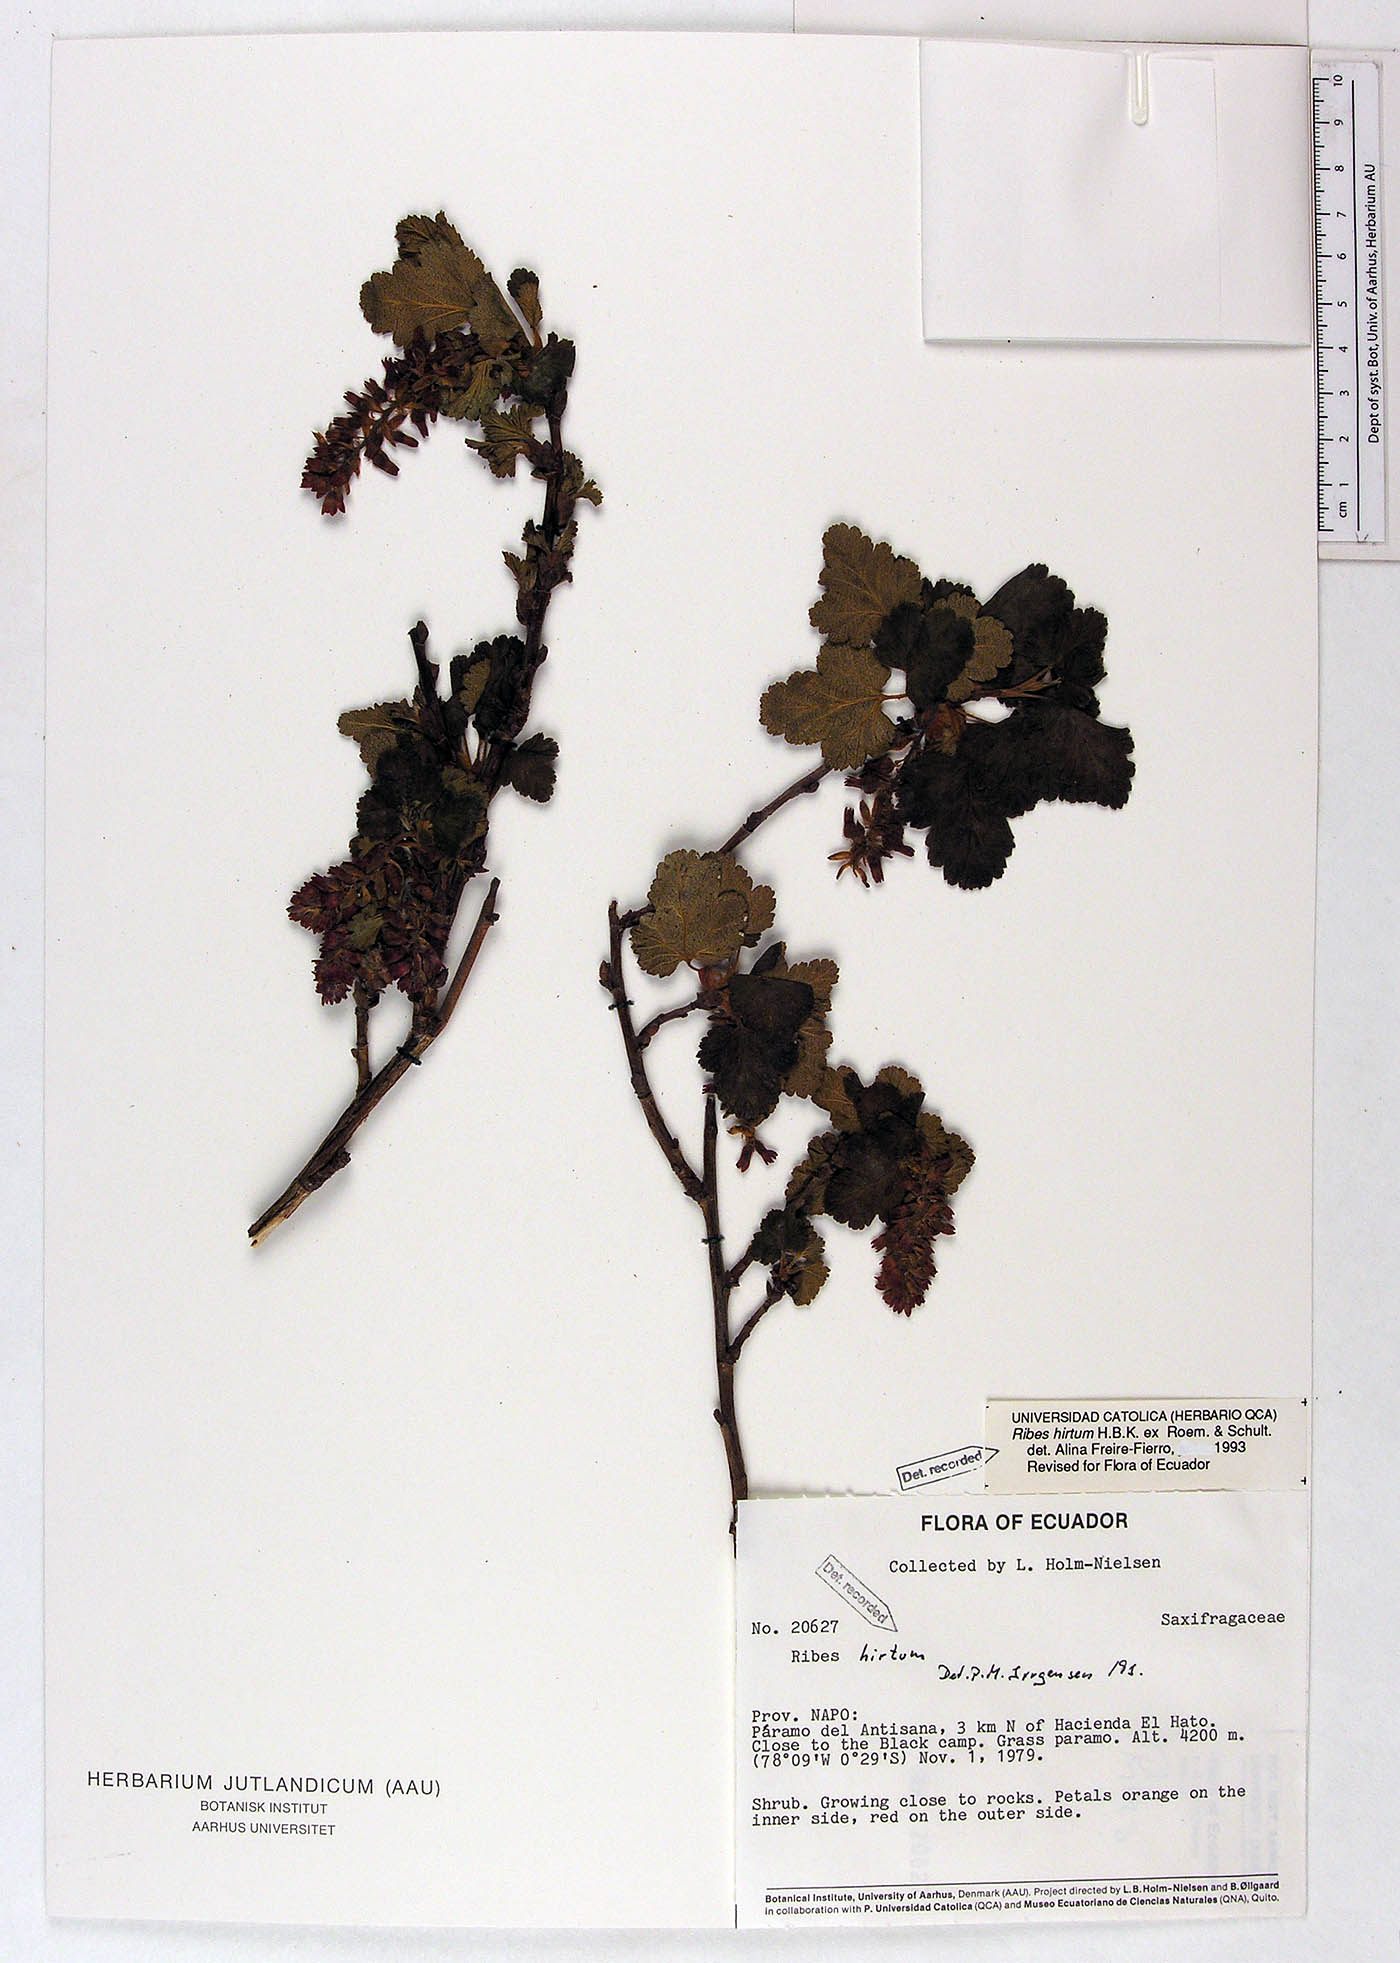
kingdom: Plantae
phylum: Tracheophyta
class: Magnoliopsida
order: Saxifragales
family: Grossulariaceae
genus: Ribes
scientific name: Ribes hirtum
